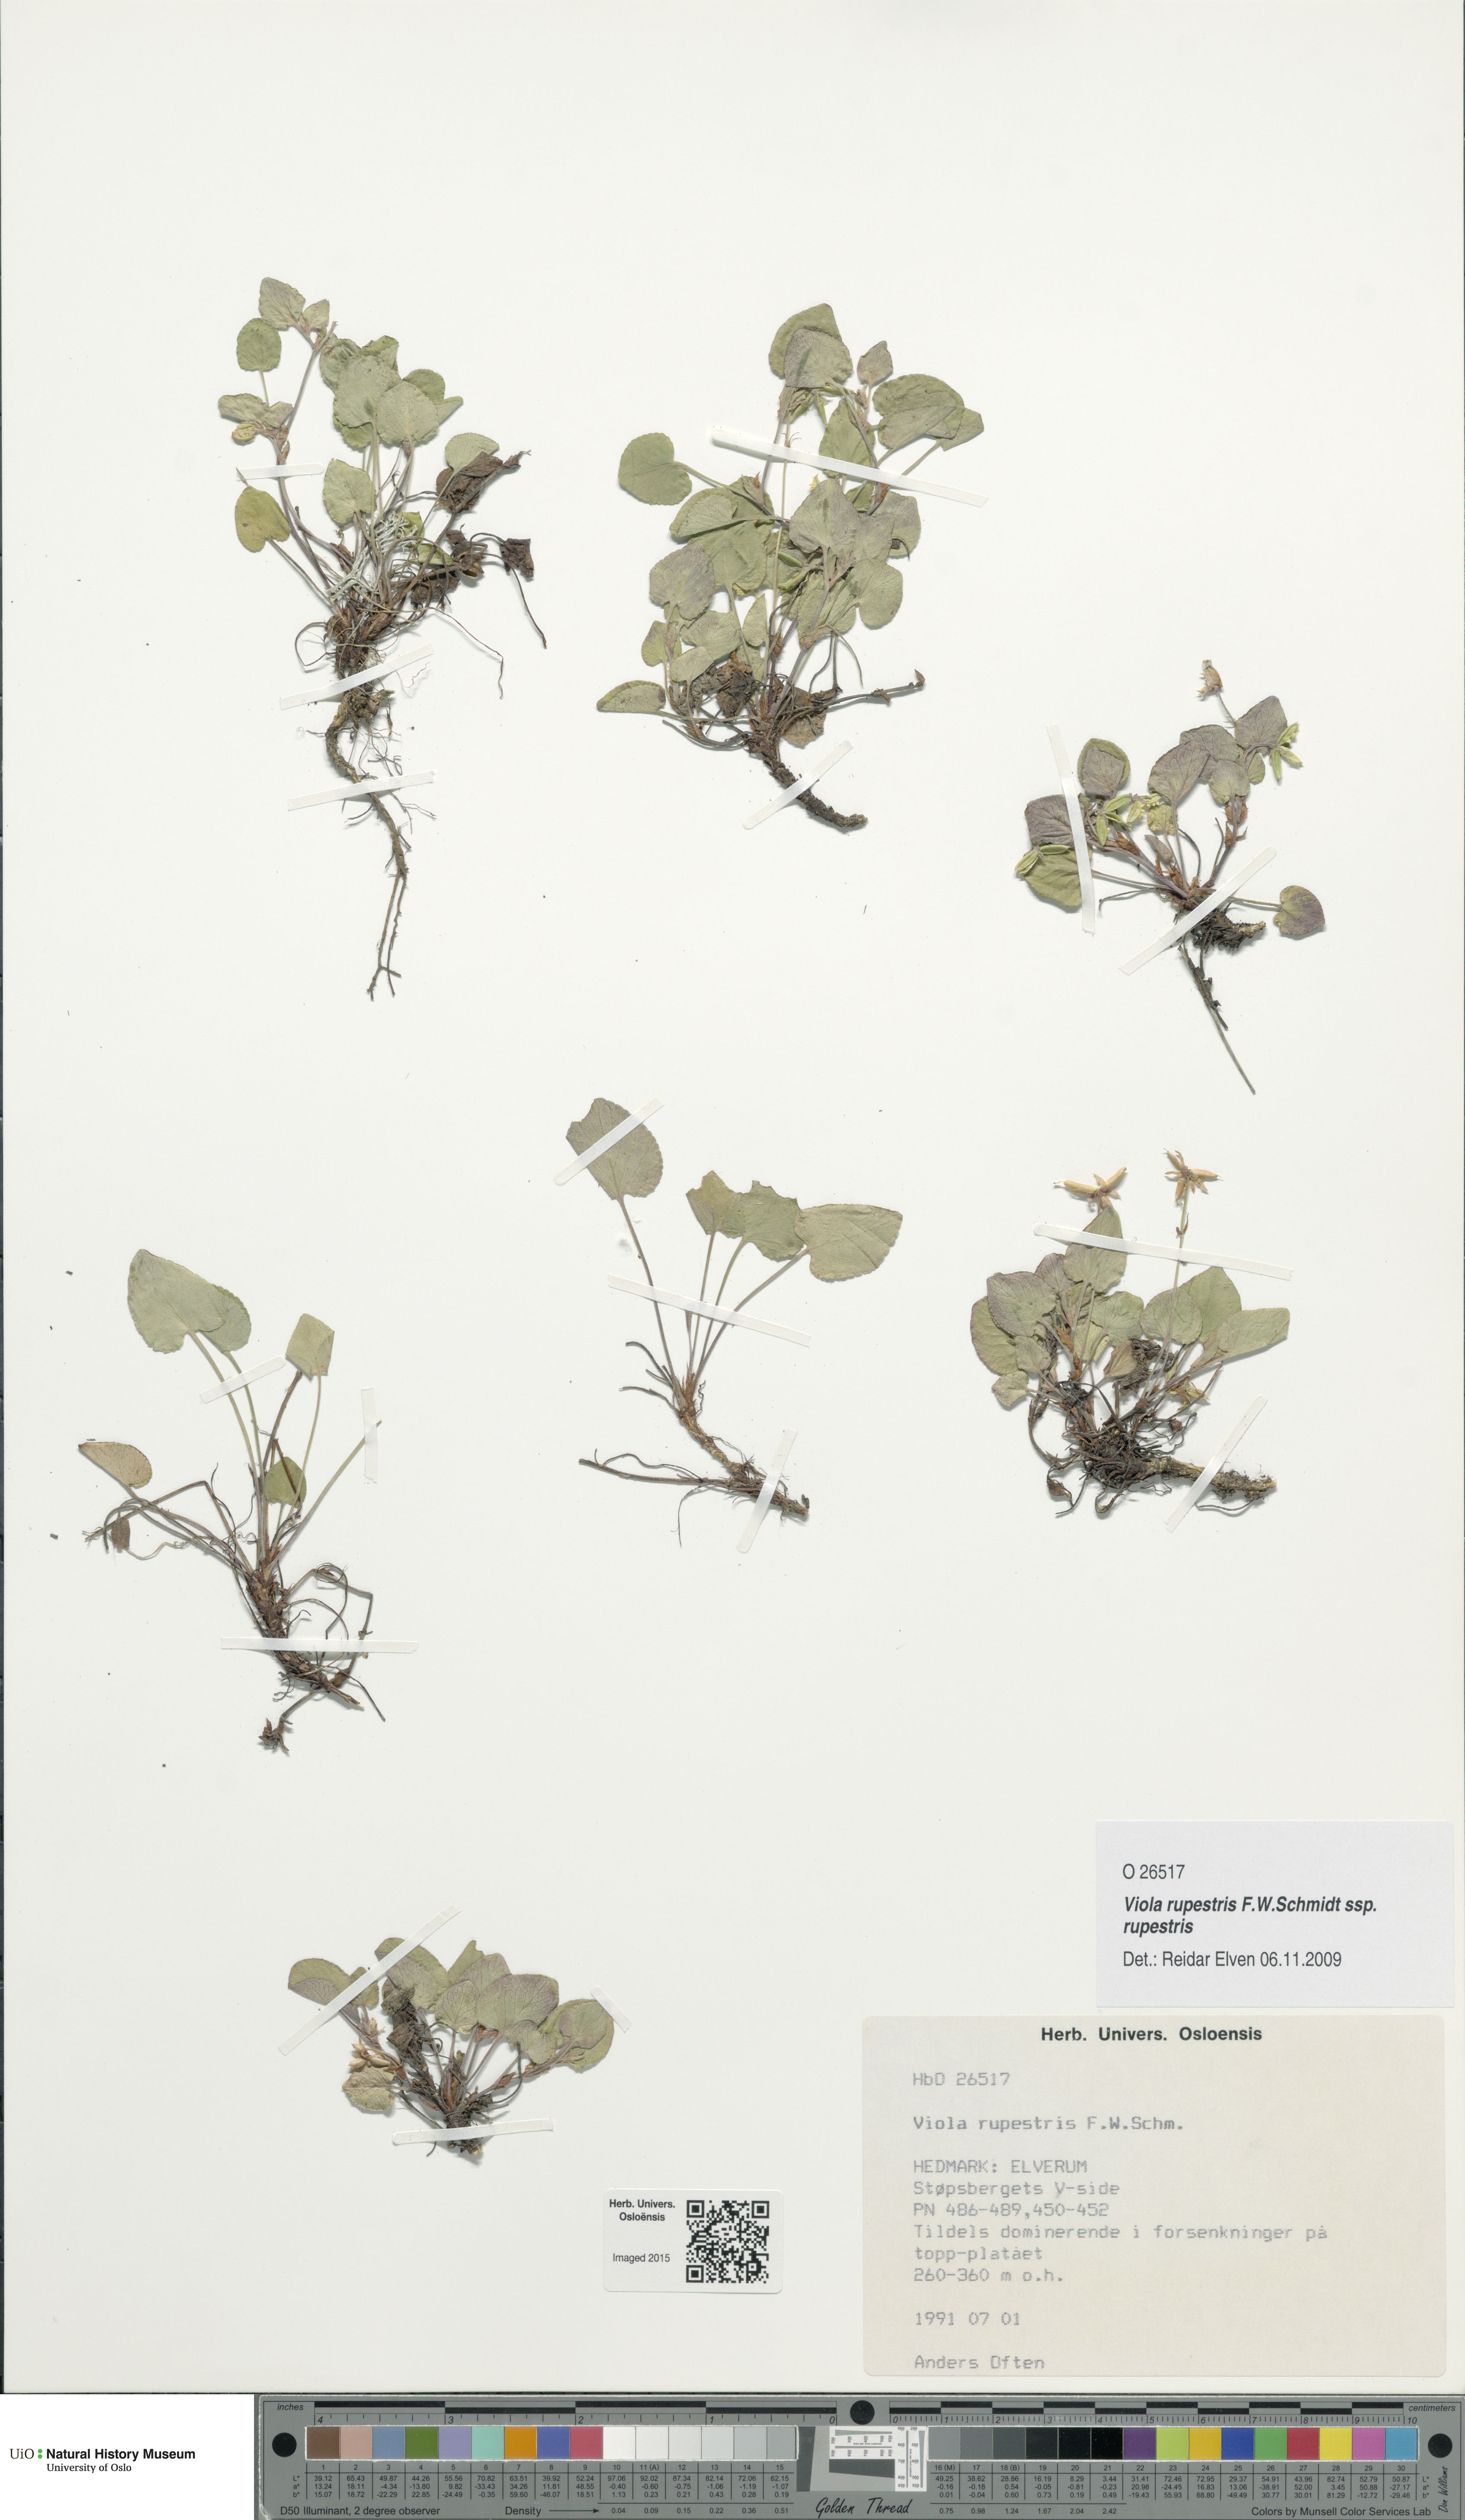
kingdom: Plantae
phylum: Tracheophyta
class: Magnoliopsida
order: Malpighiales
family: Violaceae
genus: Viola
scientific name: Viola rupestris
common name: Teesdale violet
